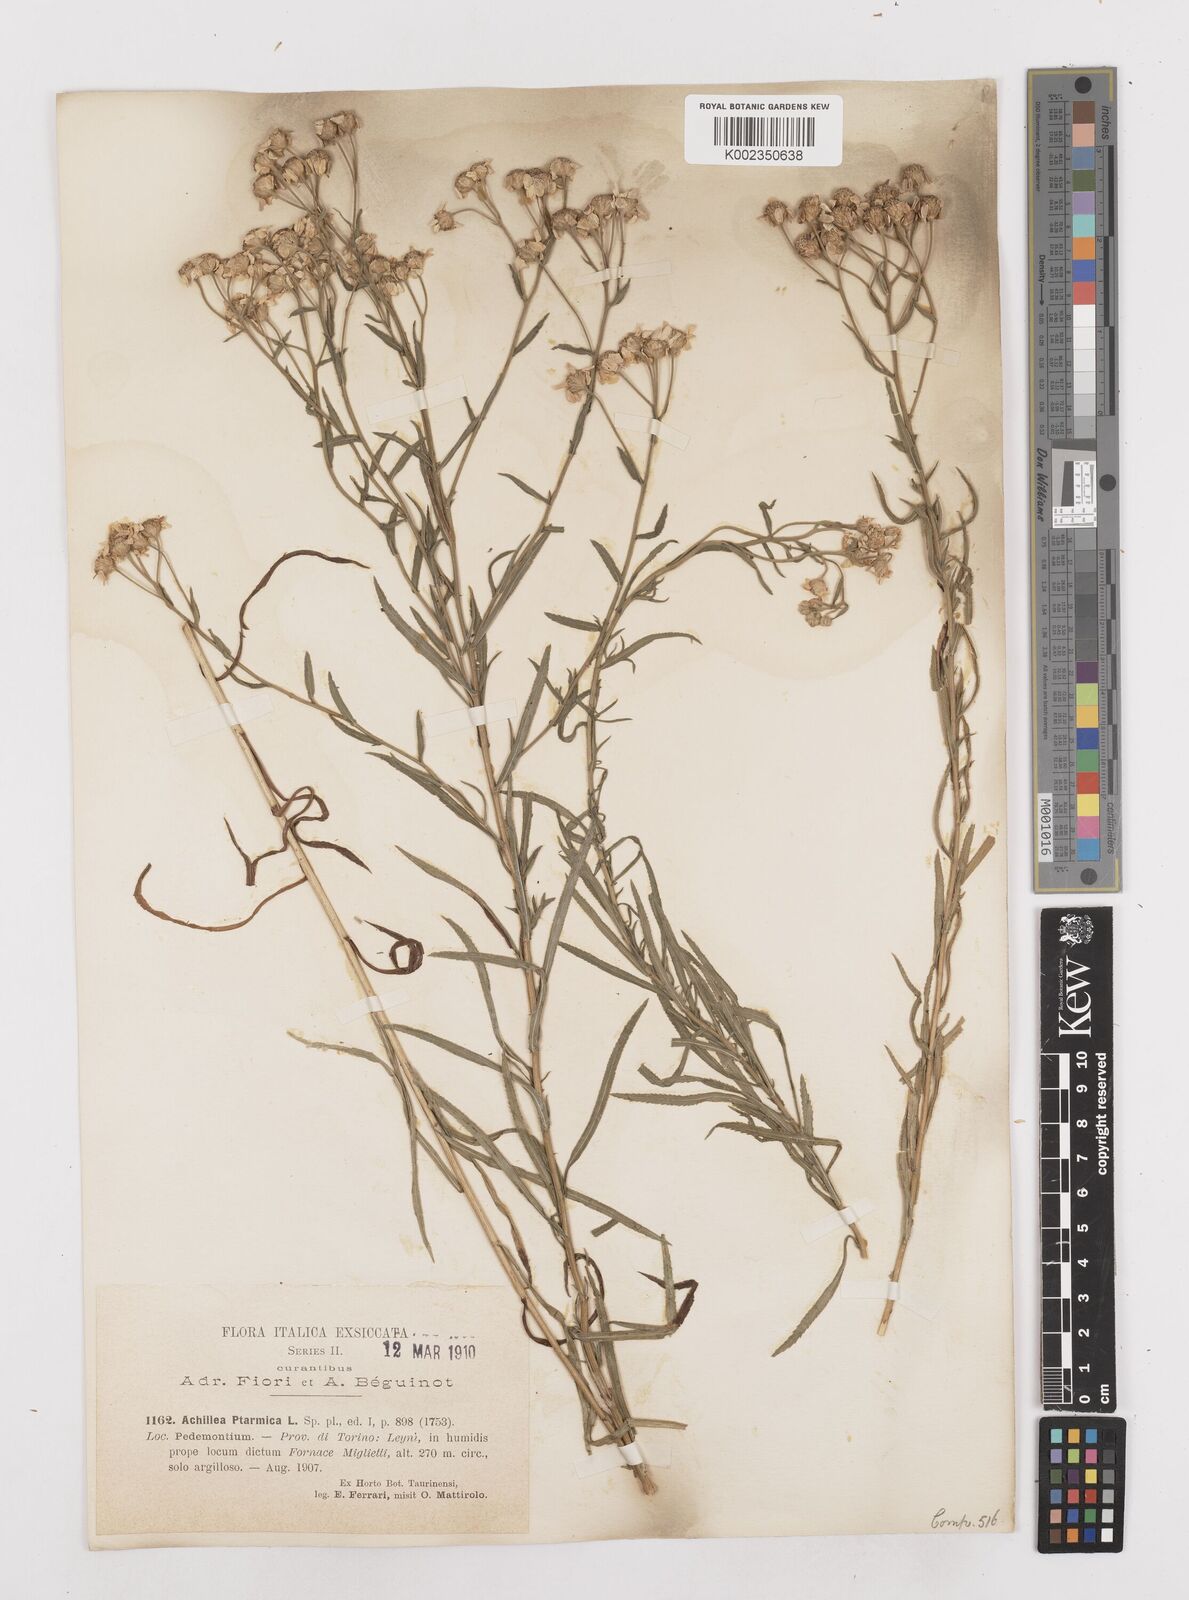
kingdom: Plantae
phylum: Tracheophyta
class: Magnoliopsida
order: Asterales
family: Asteraceae
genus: Achillea
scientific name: Achillea ptarmica
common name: Sneezeweed
